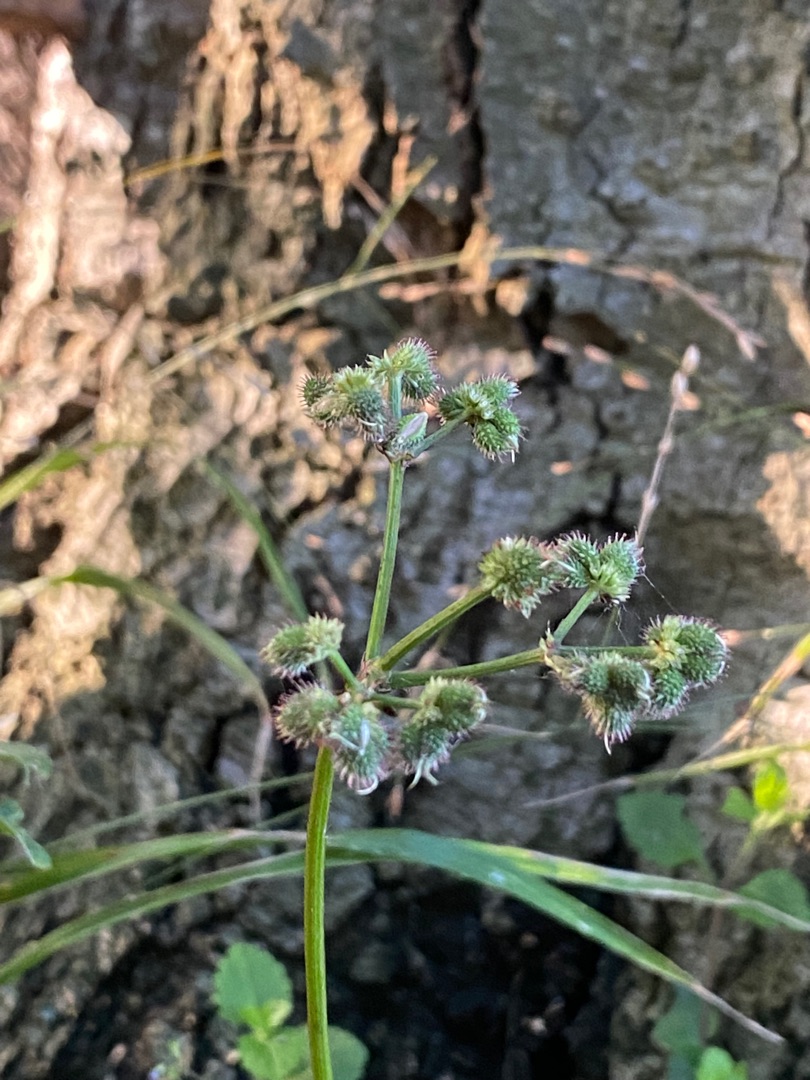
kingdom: Plantae
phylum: Tracheophyta
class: Magnoliopsida
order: Apiales
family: Apiaceae
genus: Torilis
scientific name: Torilis japonica
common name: Hvas randfrø
